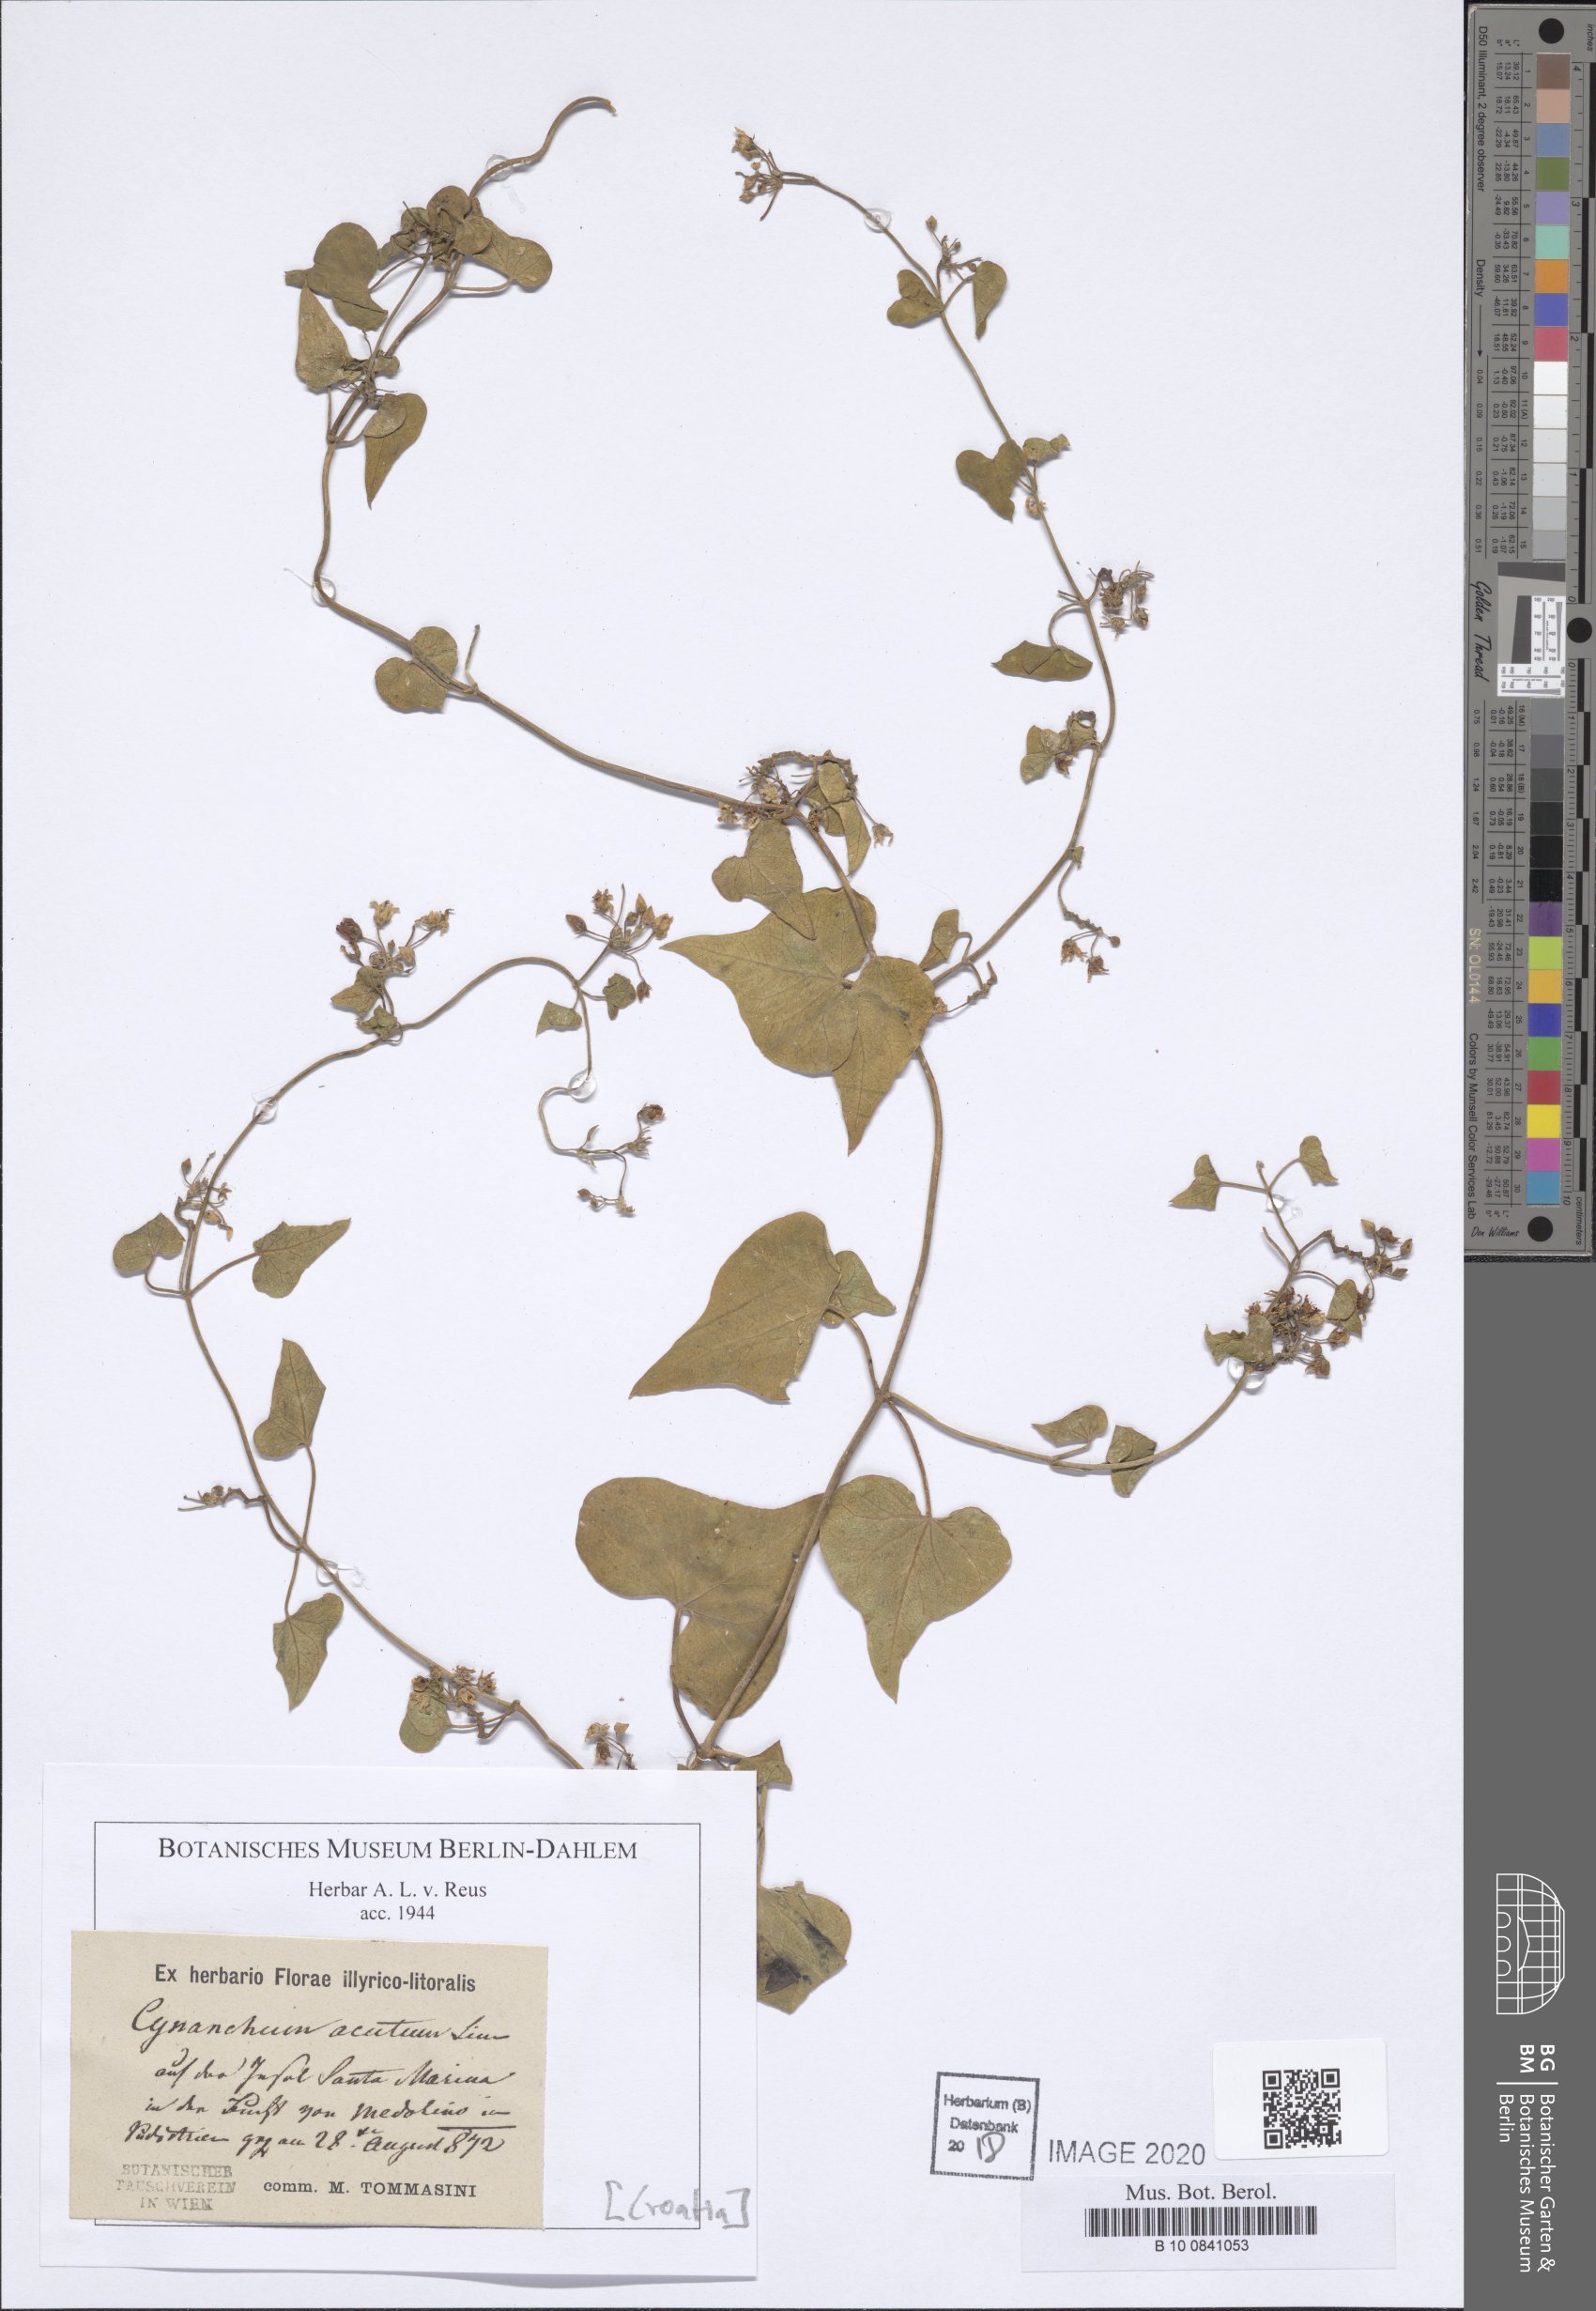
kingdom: Plantae
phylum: Tracheophyta
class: Magnoliopsida
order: Gentianales
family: Apocynaceae
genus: Cynanchum
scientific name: Cynanchum acutum
